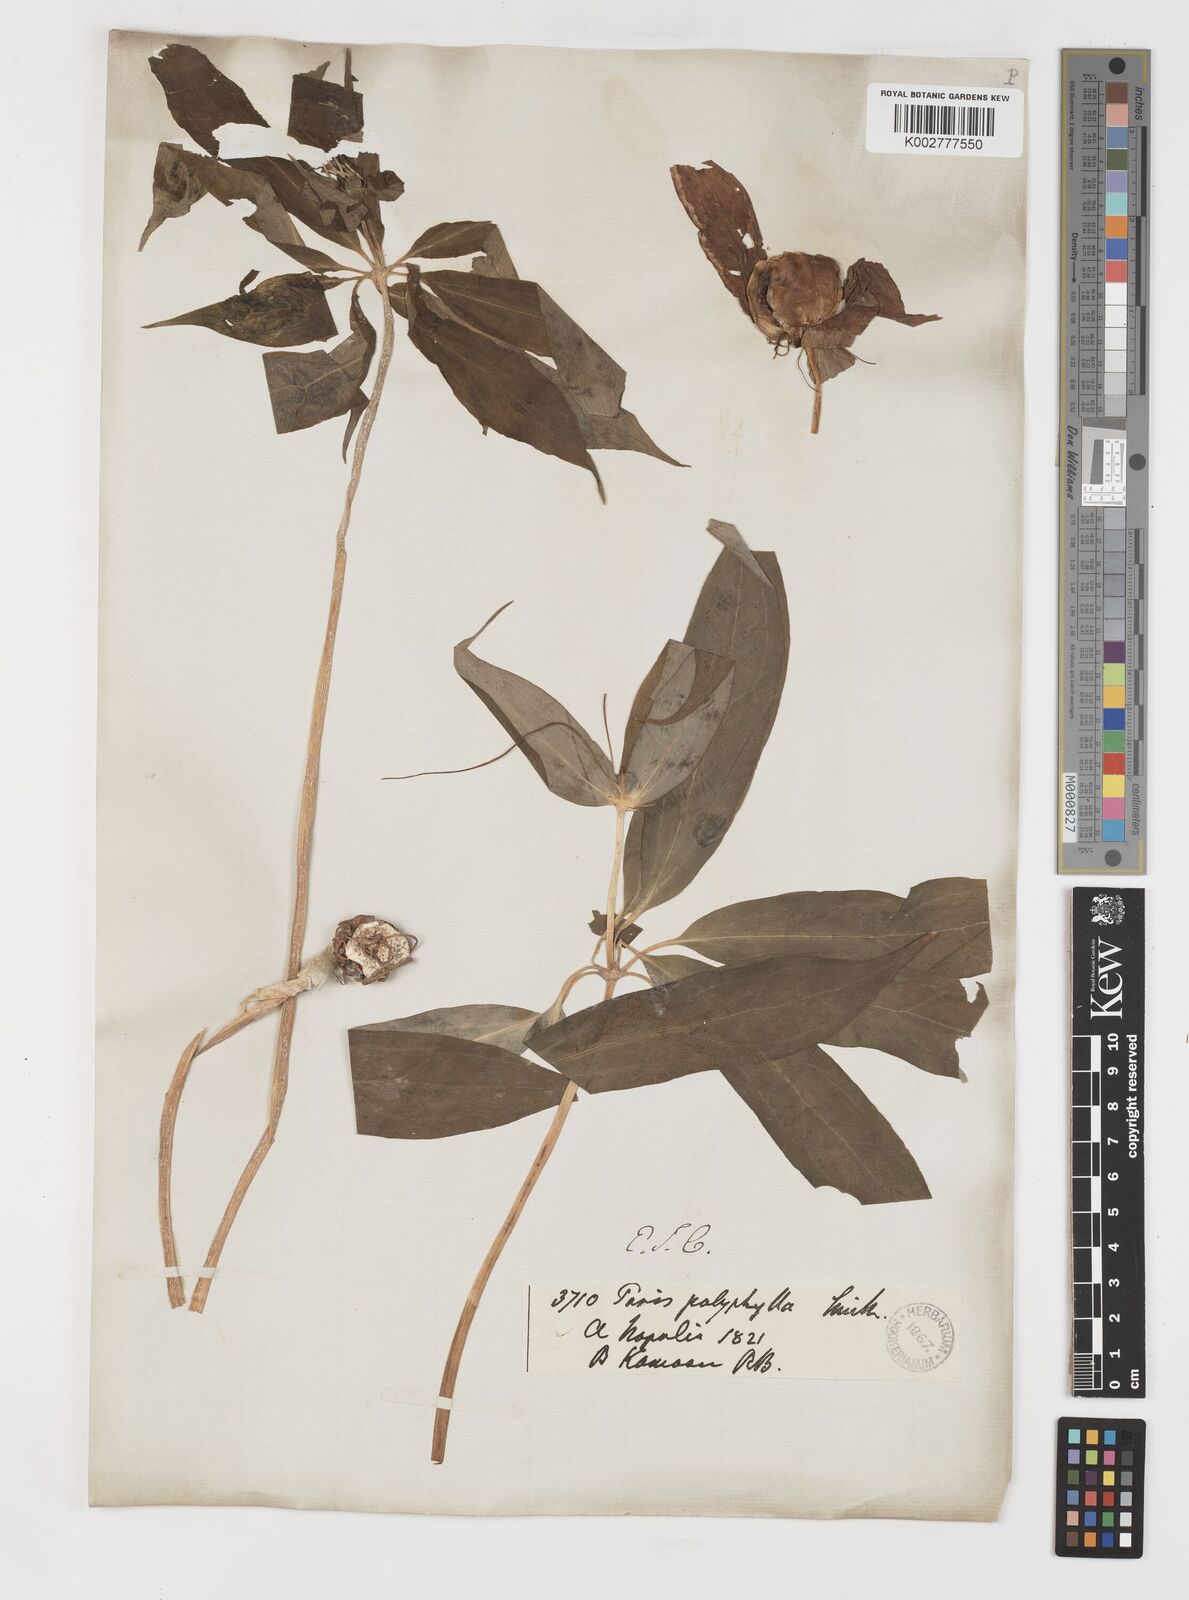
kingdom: Plantae
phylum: Tracheophyta
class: Liliopsida
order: Liliales
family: Melanthiaceae
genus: Paris
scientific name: Paris polyphylla
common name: Love apple
